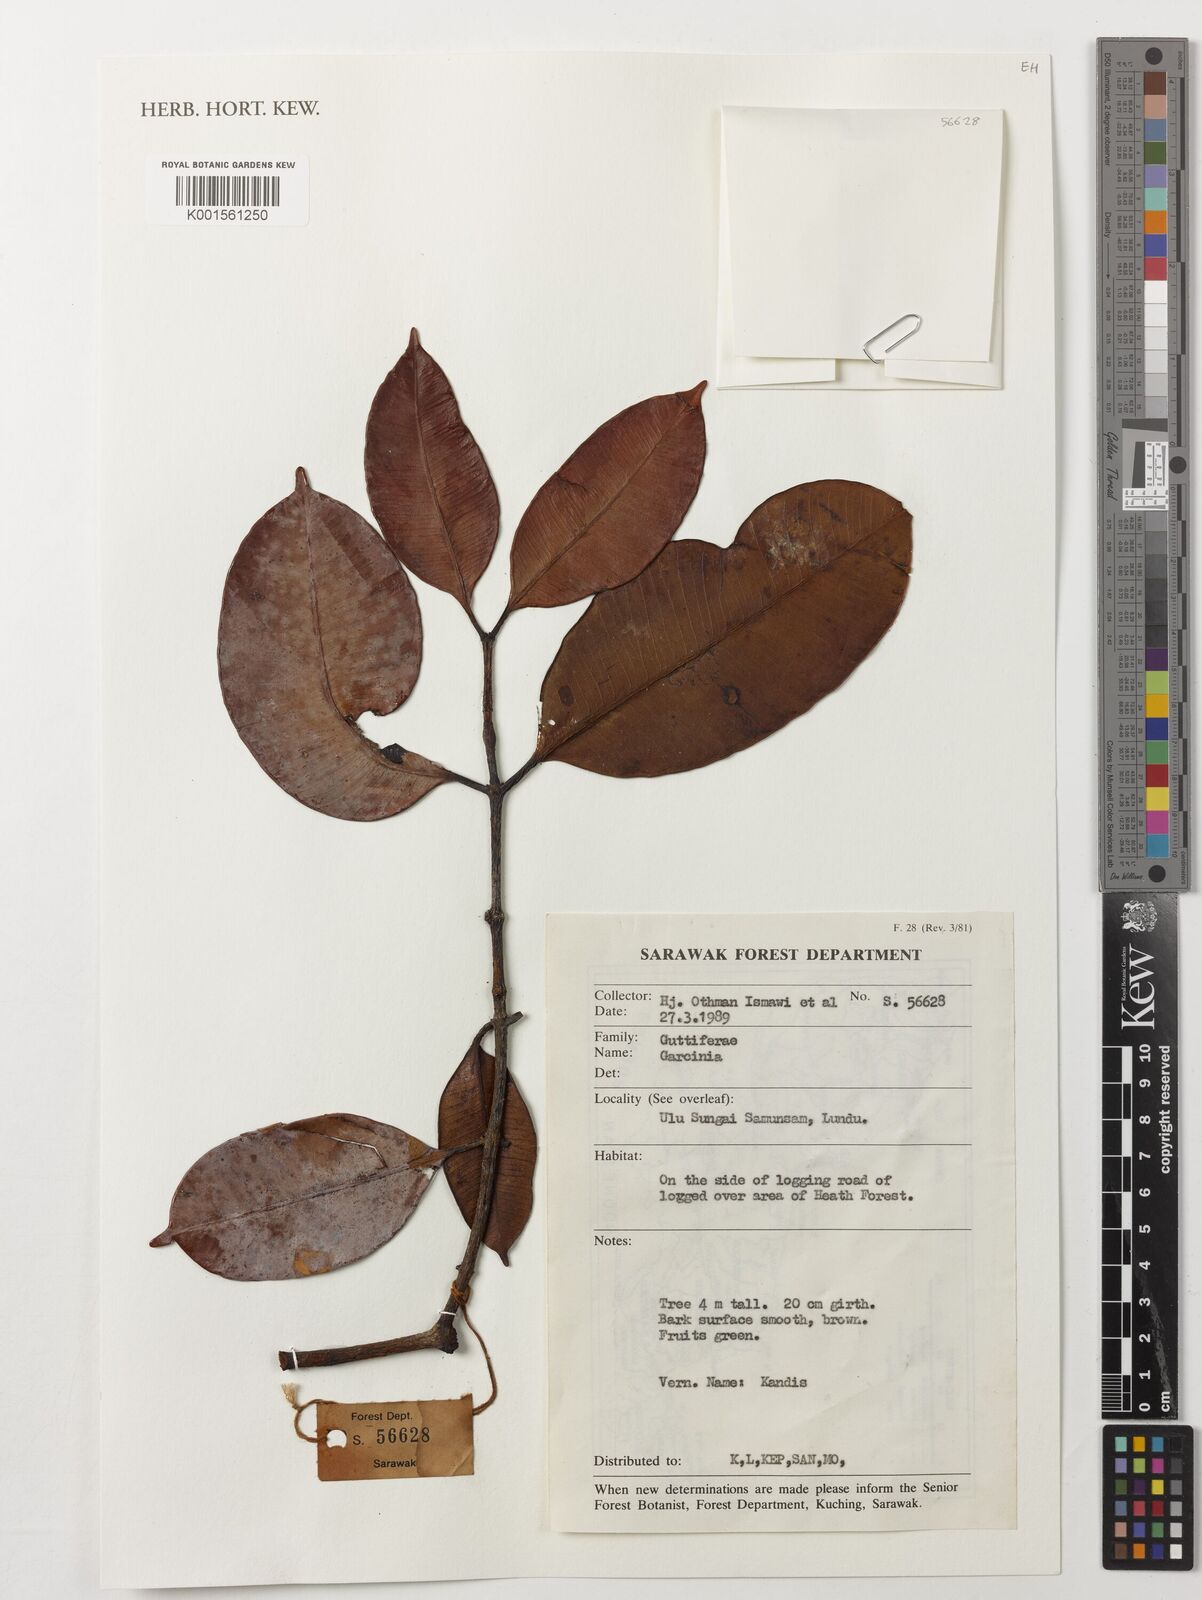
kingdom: Plantae
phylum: Tracheophyta
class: Magnoliopsida
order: Malpighiales
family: Clusiaceae
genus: Garcinia
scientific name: Garcinia
